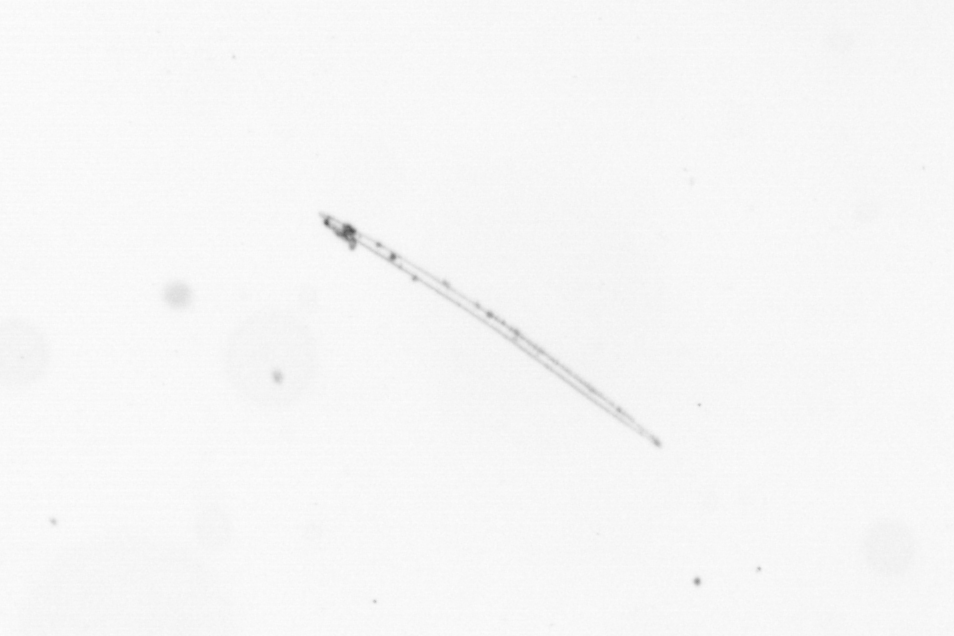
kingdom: Chromista
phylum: Ochrophyta
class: Bacillariophyceae
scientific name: Bacillariophyceae
